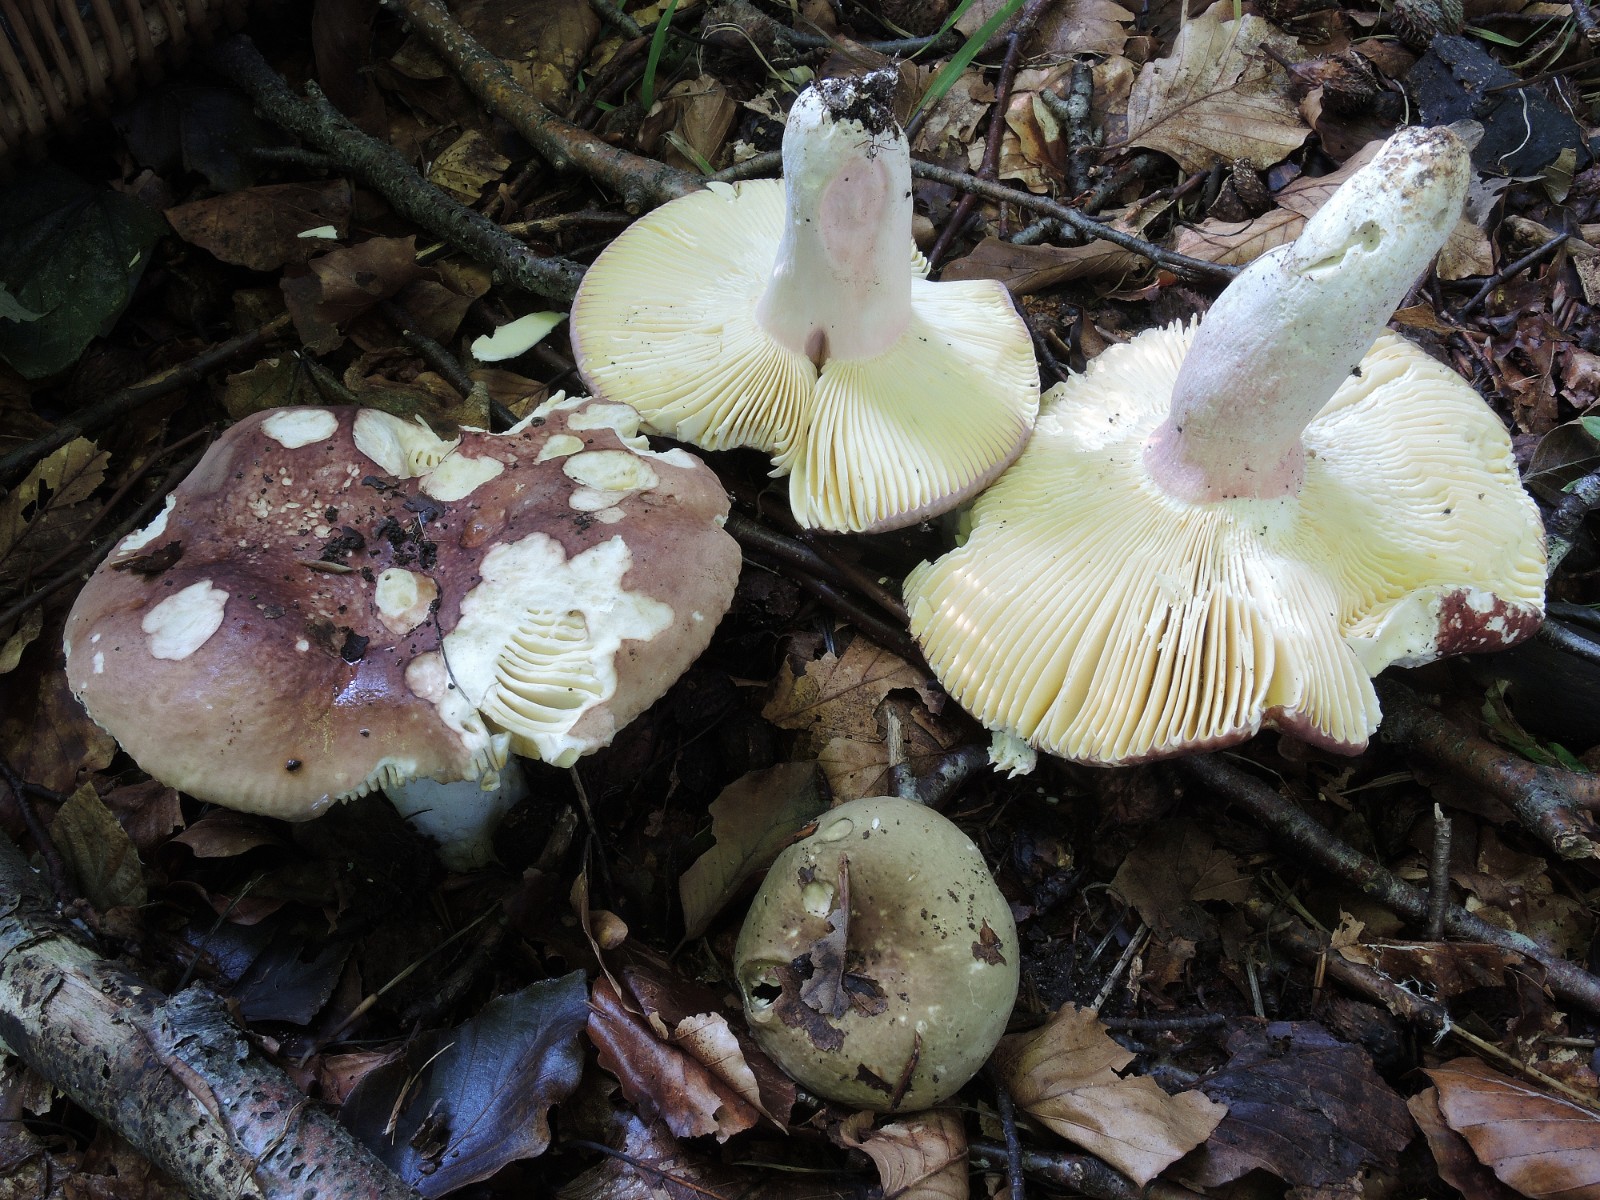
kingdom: Fungi
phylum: Basidiomycota
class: Agaricomycetes
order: Russulales
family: Russulaceae
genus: Russula
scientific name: Russula olivacea
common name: stor skørhat
